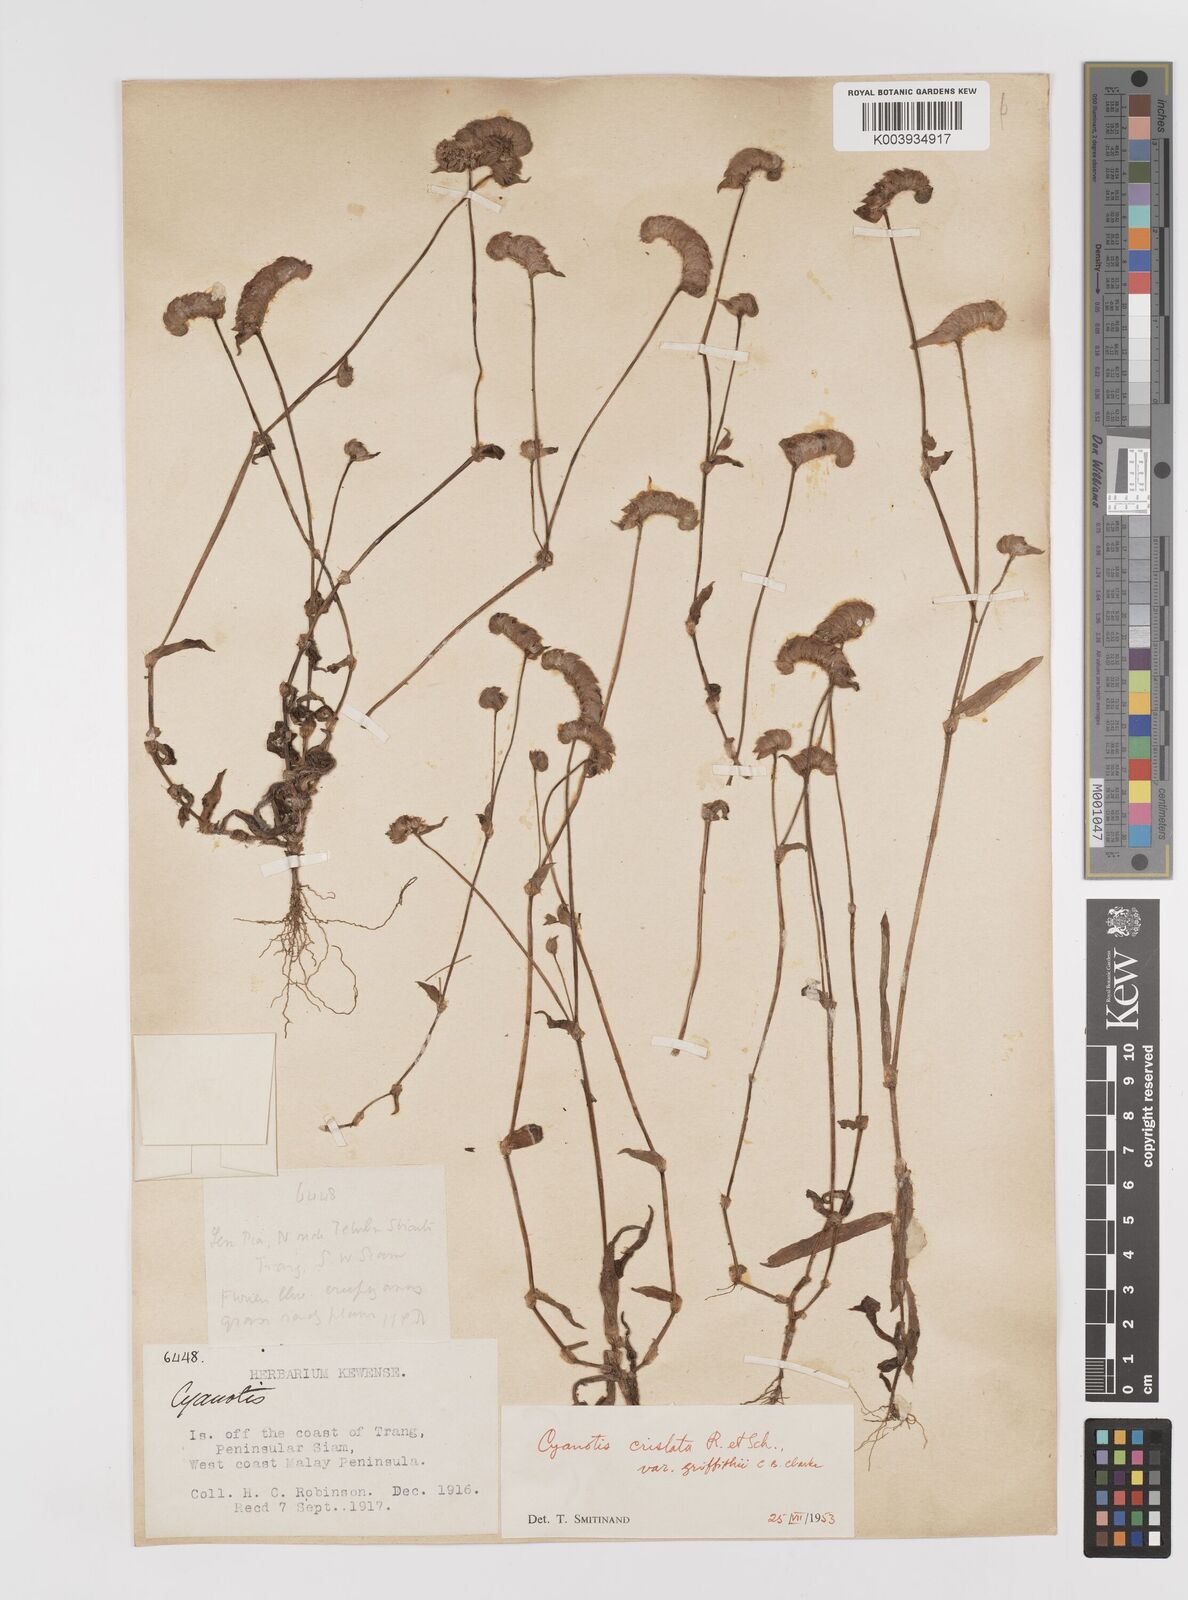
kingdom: Plantae
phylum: Tracheophyta
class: Liliopsida
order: Commelinales
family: Commelinaceae
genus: Cyanotis
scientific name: Cyanotis cristata
